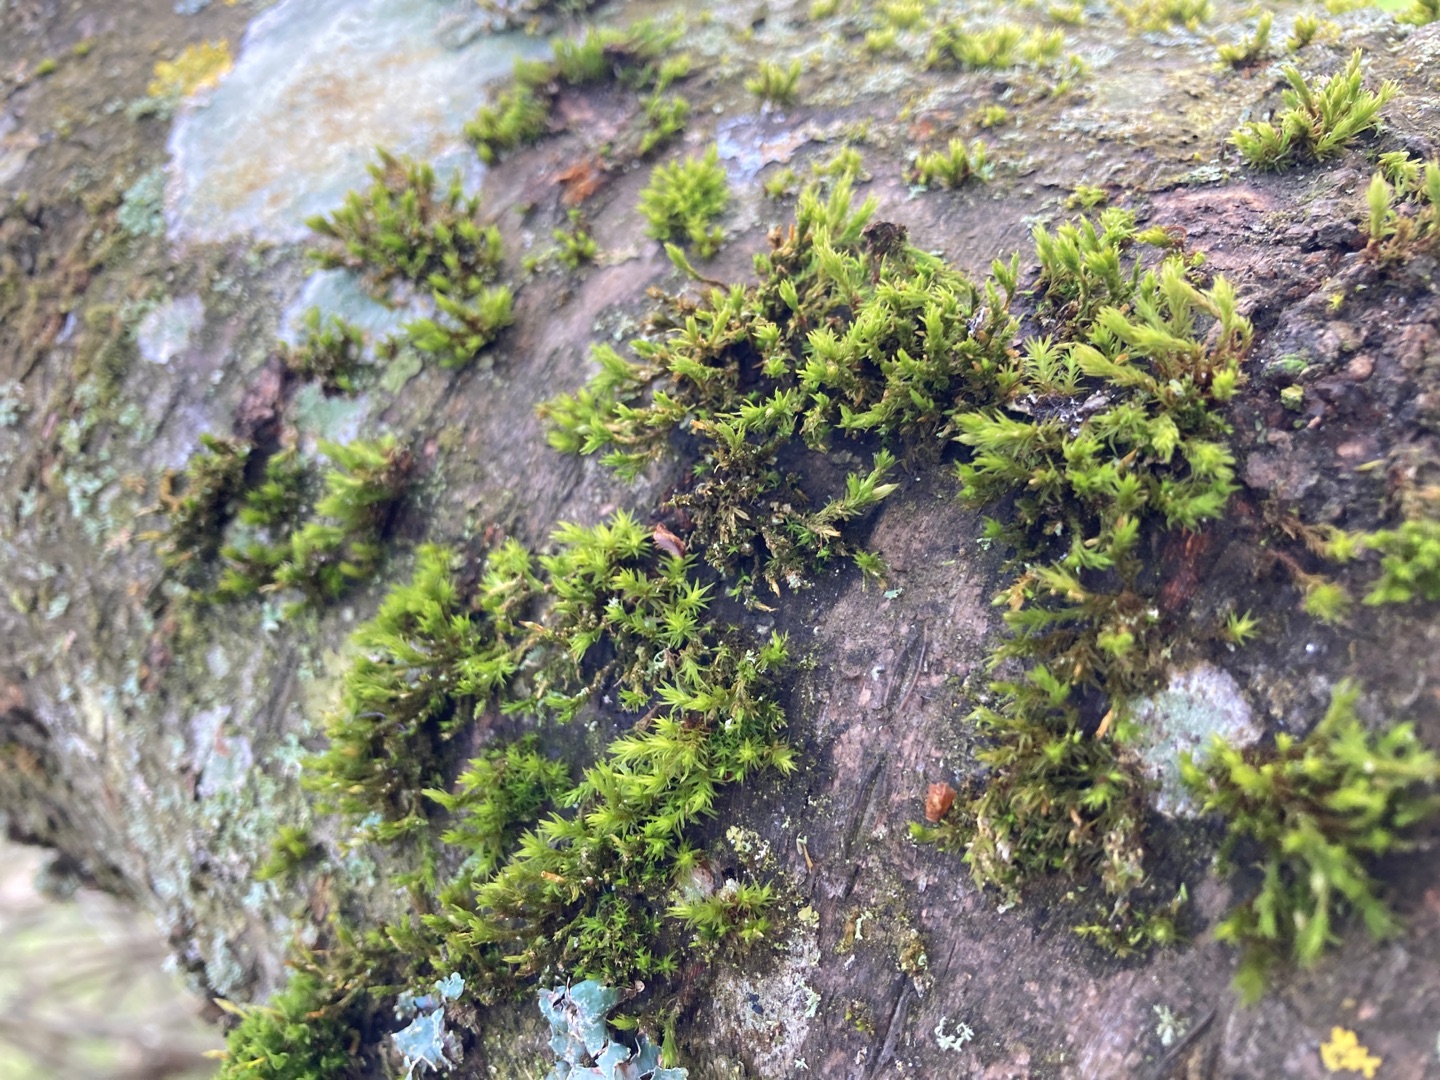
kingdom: Plantae
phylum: Bryophyta
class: Bryopsida
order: Orthotrichales
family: Orthotrichaceae
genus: Lewinskya
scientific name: Lewinskya affinis
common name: Almindelig furehætte
